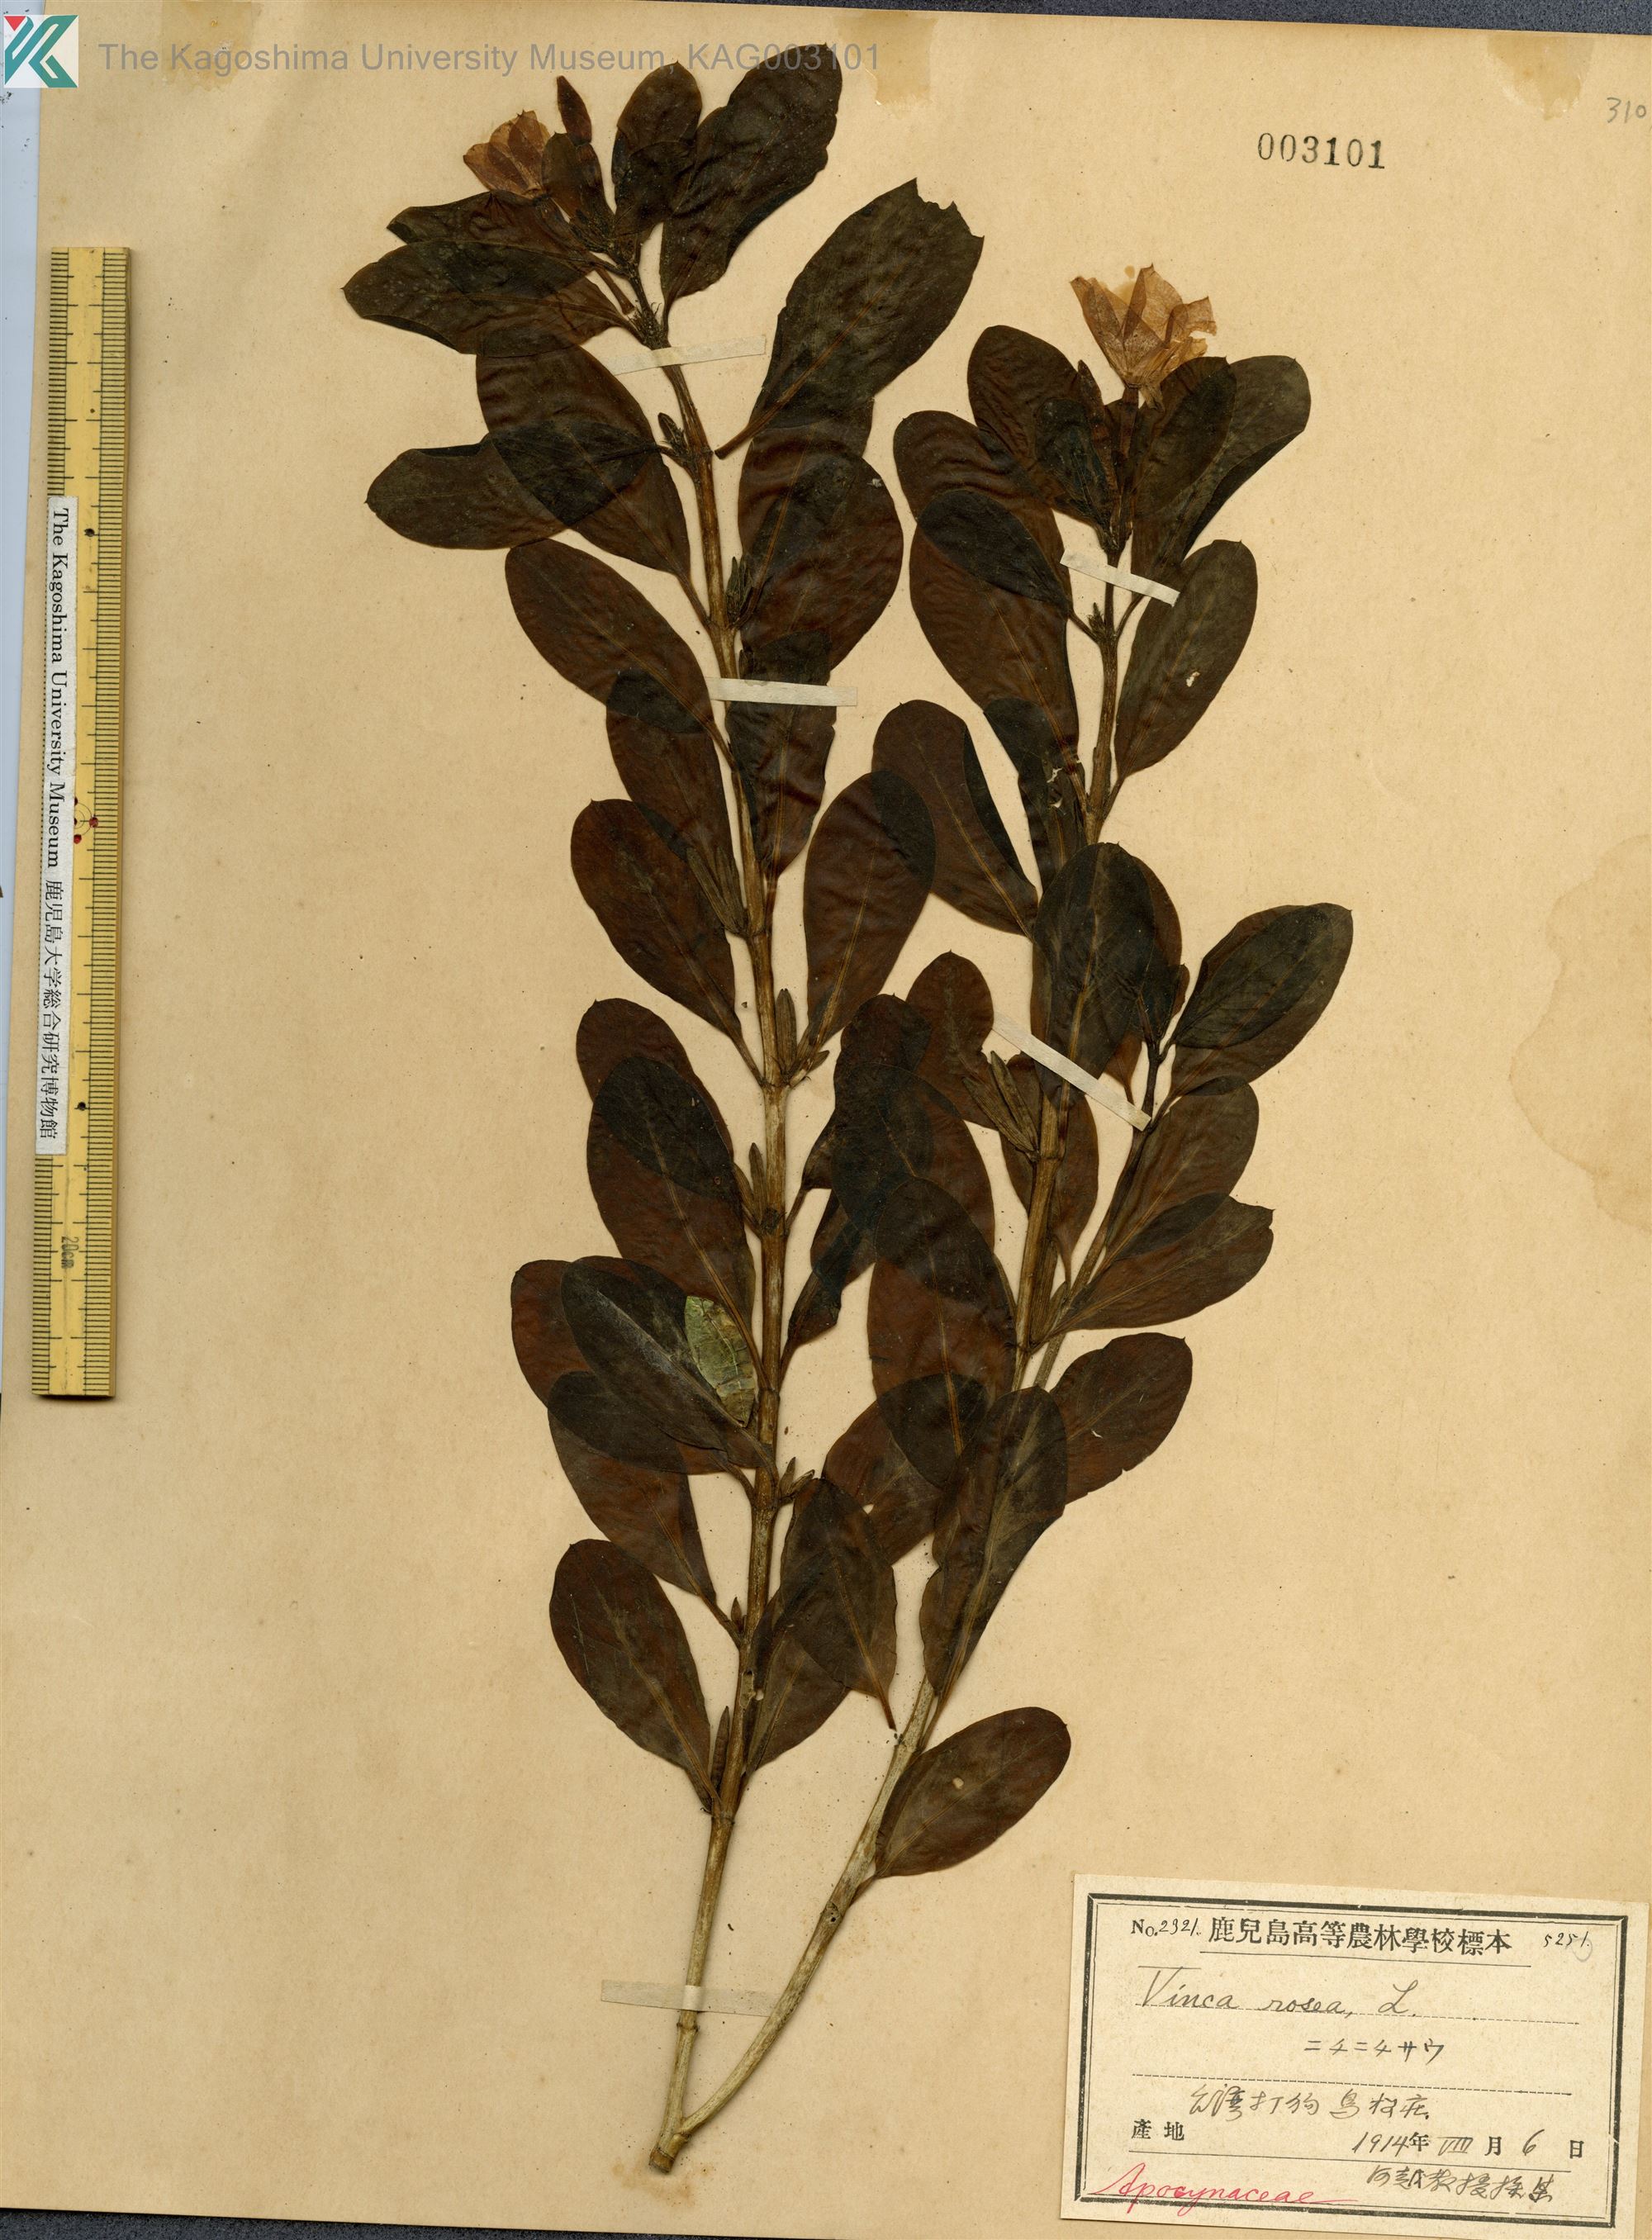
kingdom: Plantae
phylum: Tracheophyta
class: Magnoliopsida
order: Gentianales
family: Apocynaceae
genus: Catharanthus
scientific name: Catharanthus roseus
